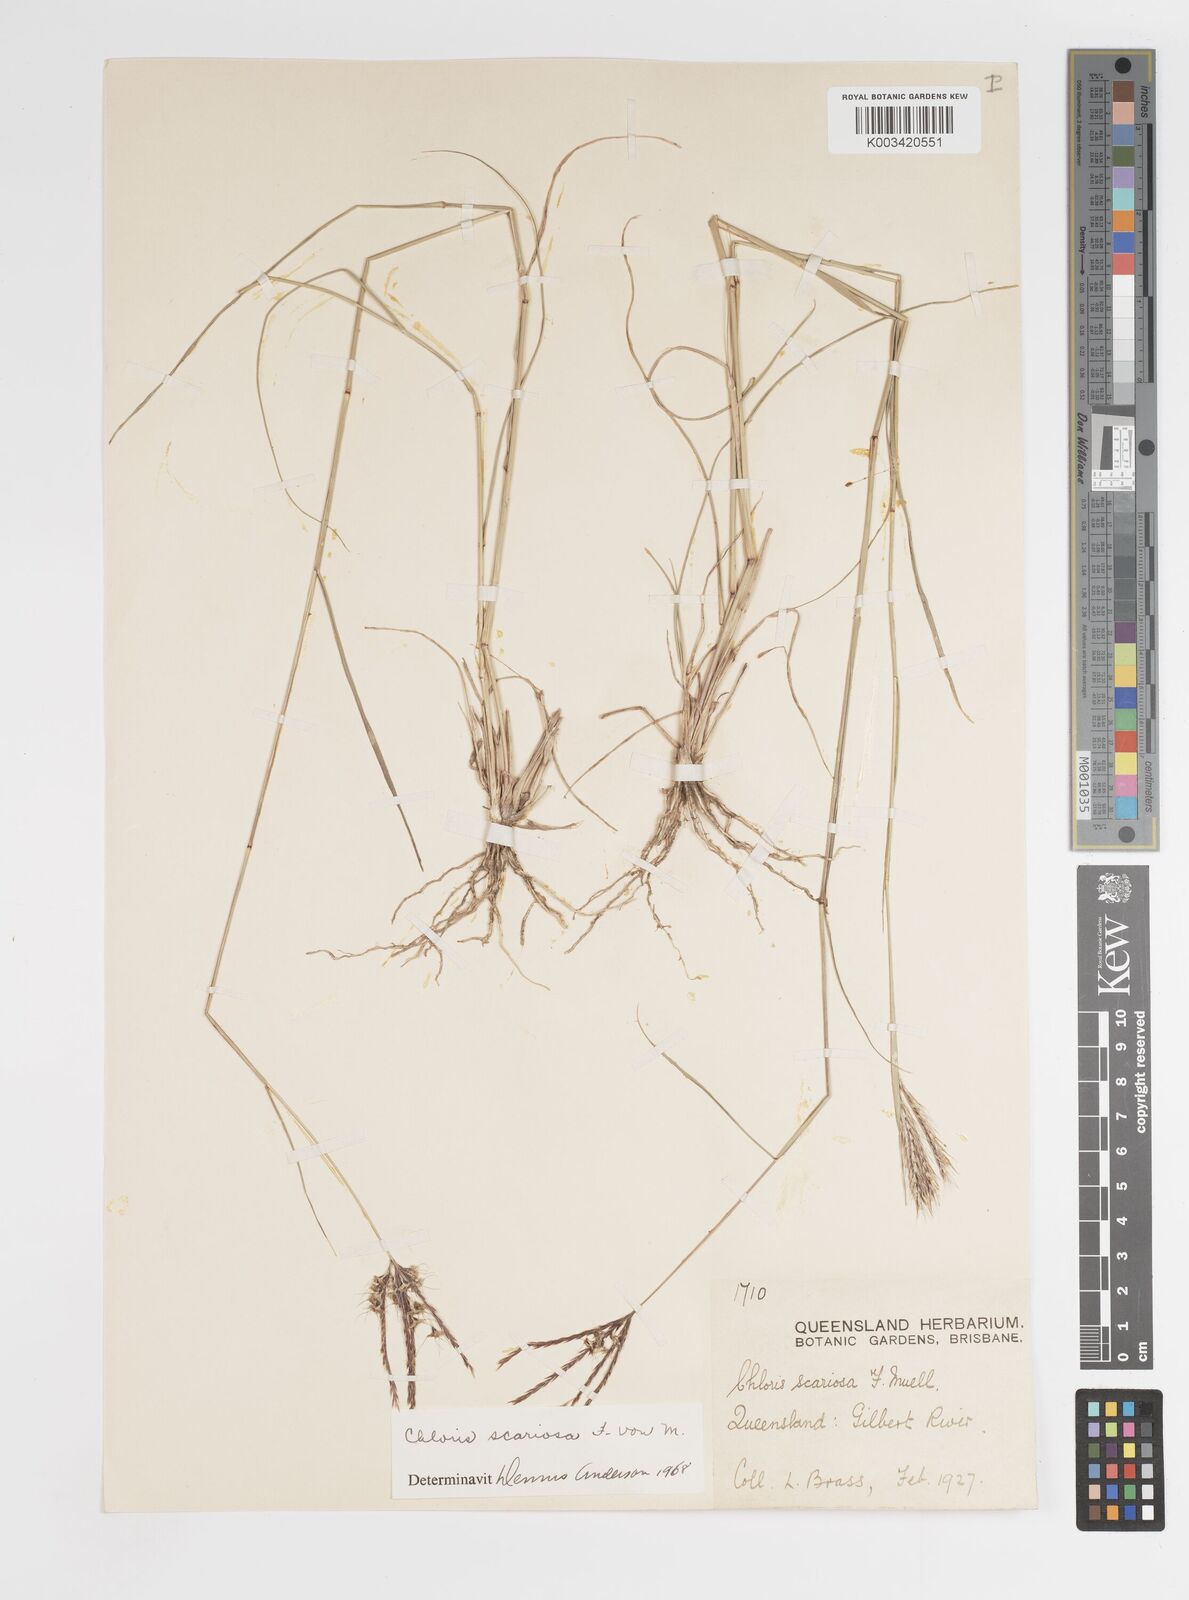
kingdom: Plantae
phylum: Tracheophyta
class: Liliopsida
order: Poales
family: Poaceae
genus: Oxychloris
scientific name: Oxychloris scariosa
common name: Winged windmill grass
